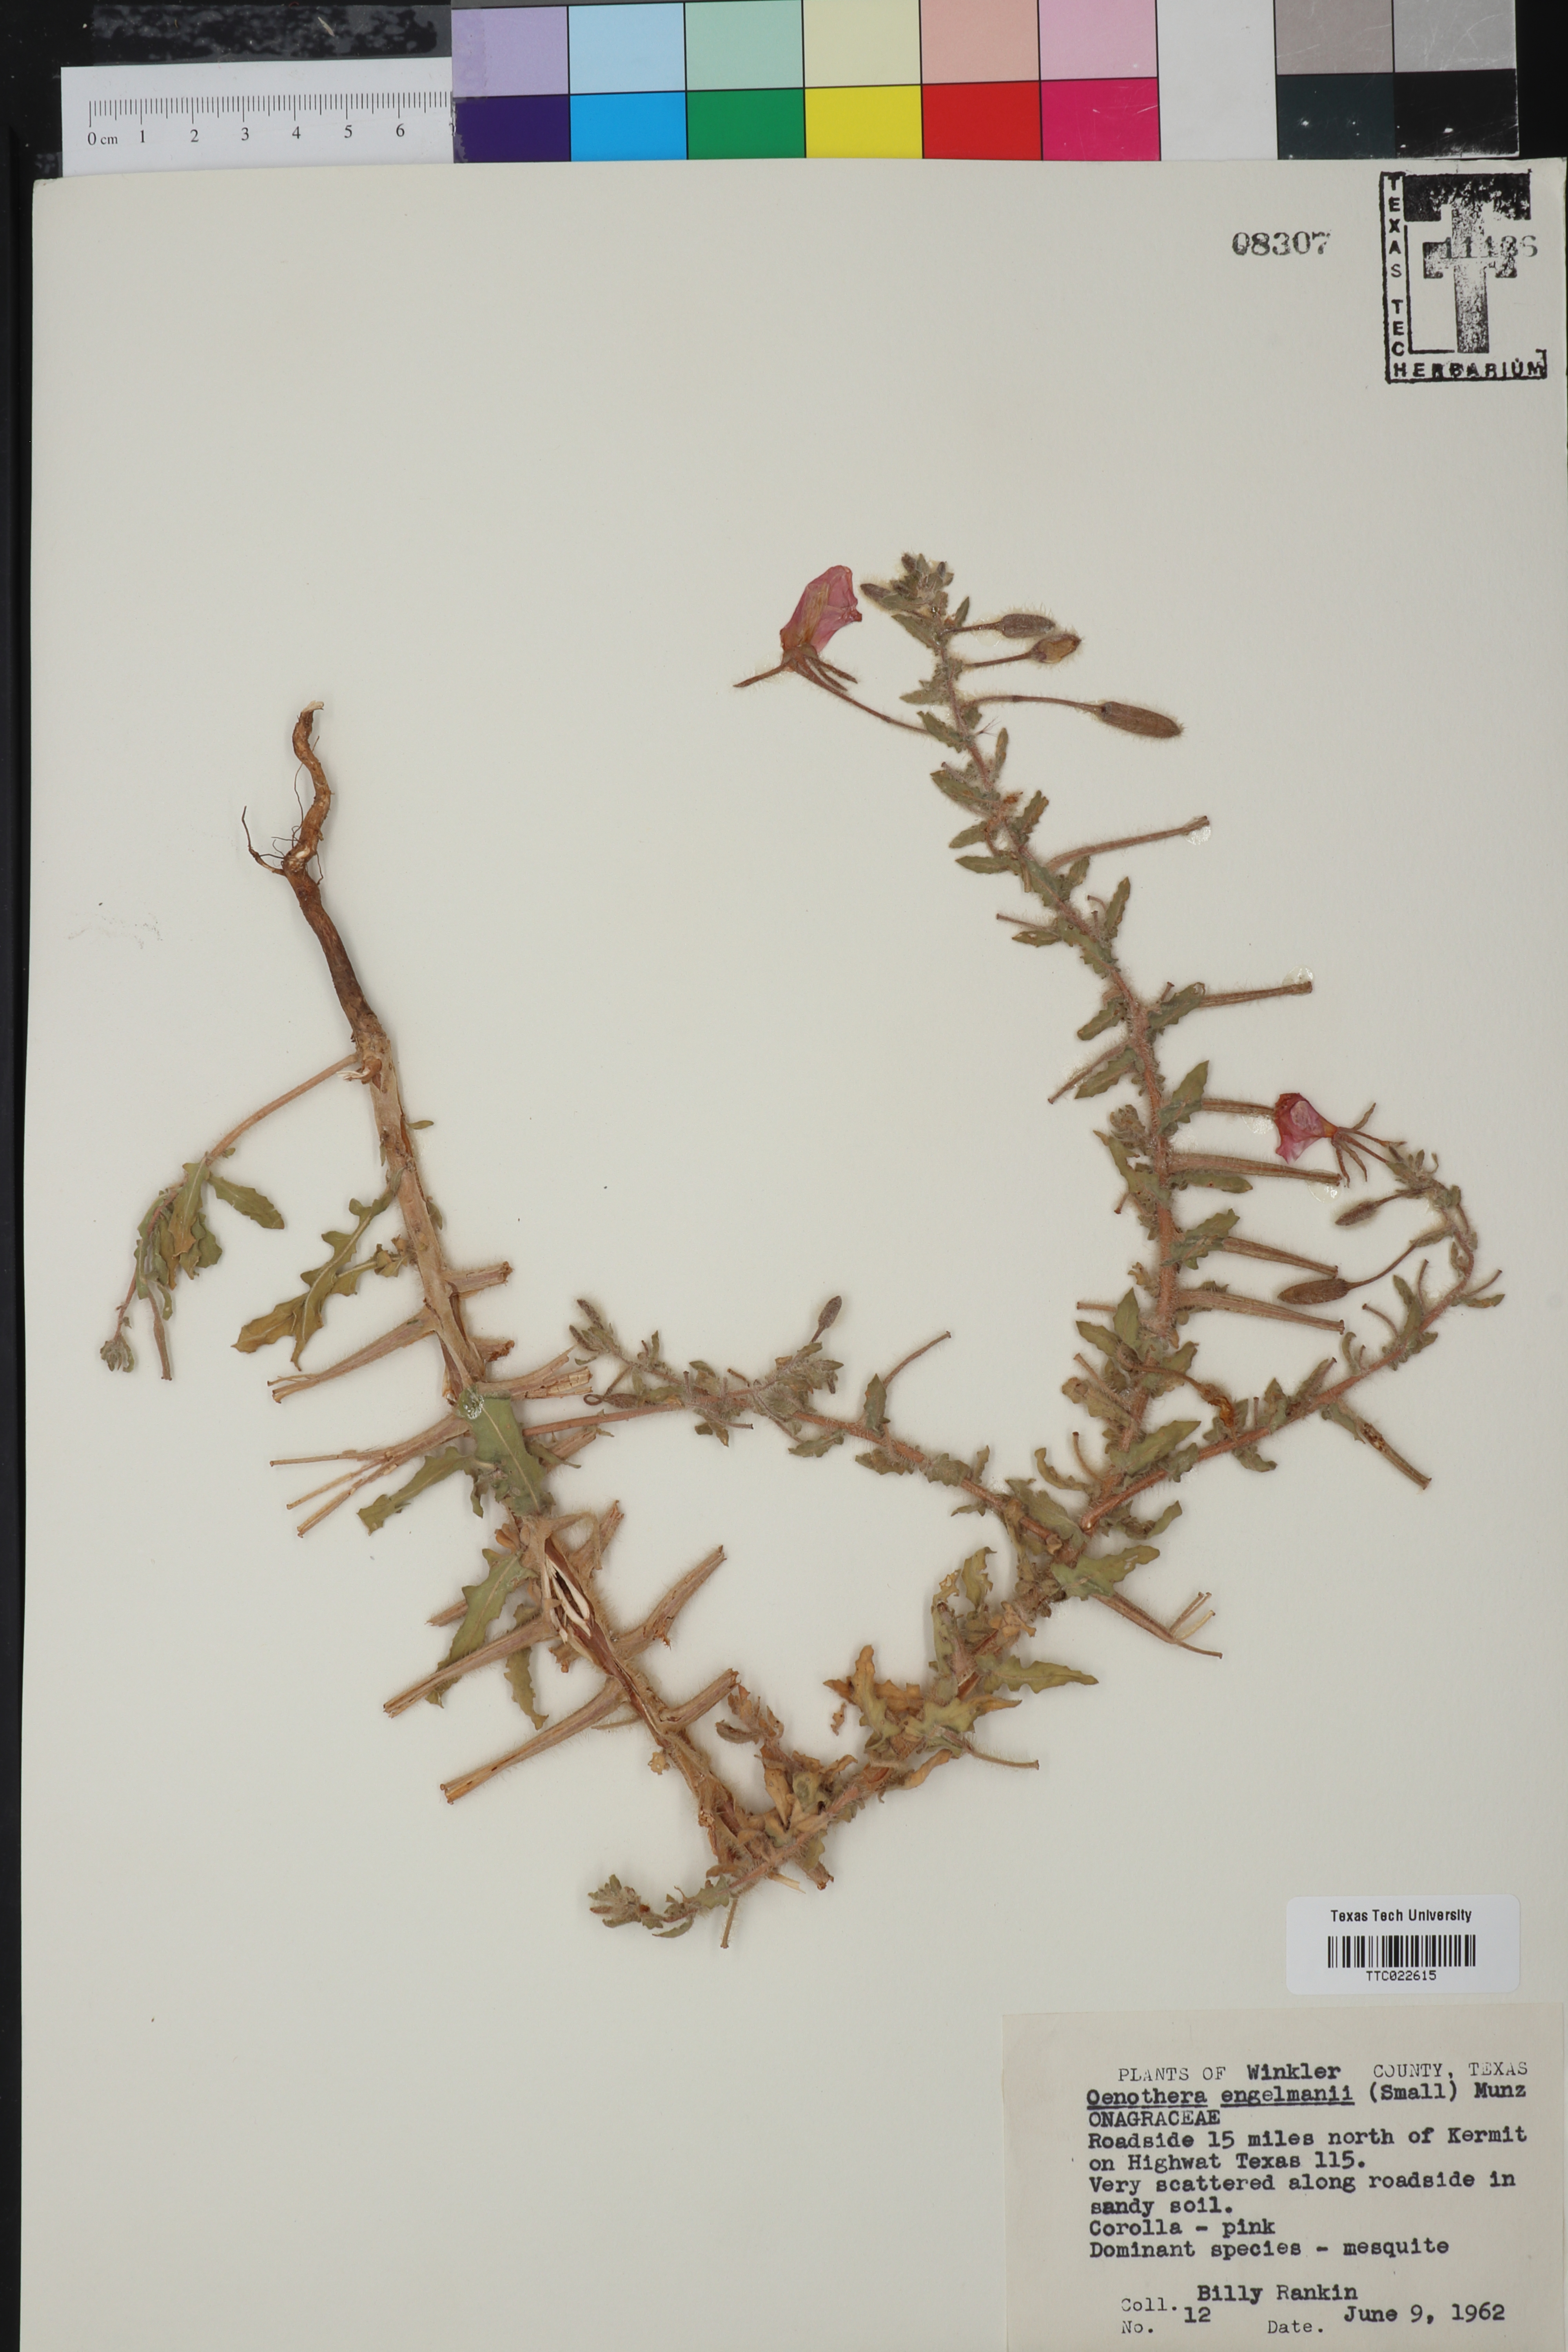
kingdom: Plantae
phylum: Tracheophyta
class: Magnoliopsida
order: Myrtales
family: Onagraceae
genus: Oenothera
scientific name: Oenothera engelmannii
